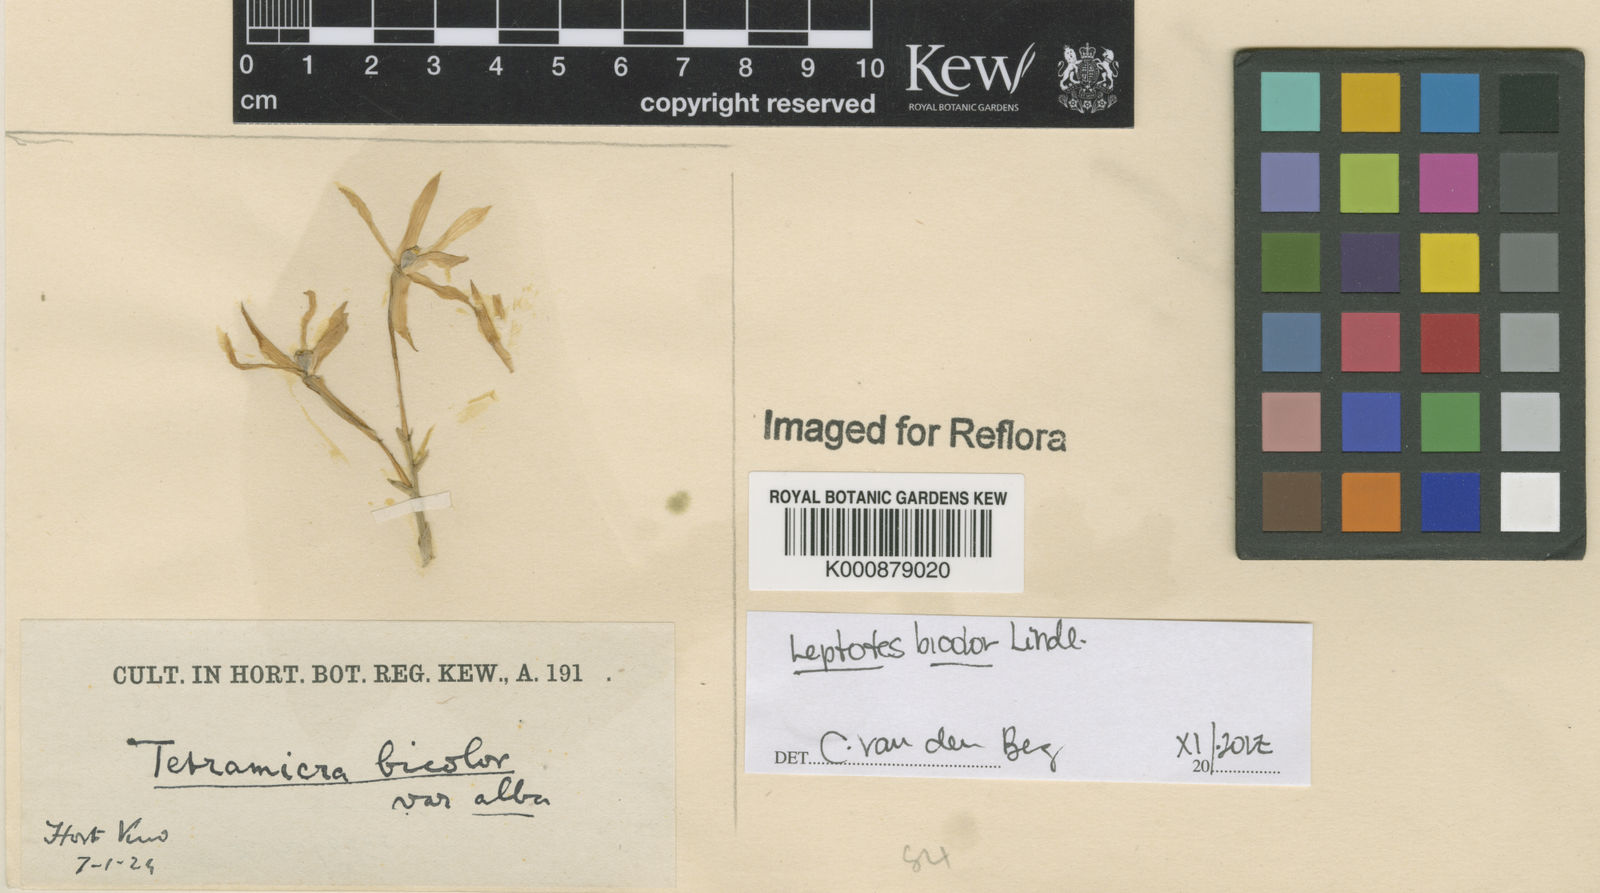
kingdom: Plantae
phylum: Tracheophyta
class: Liliopsida
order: Asparagales
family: Orchidaceae
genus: Leptotes
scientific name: Leptotes
